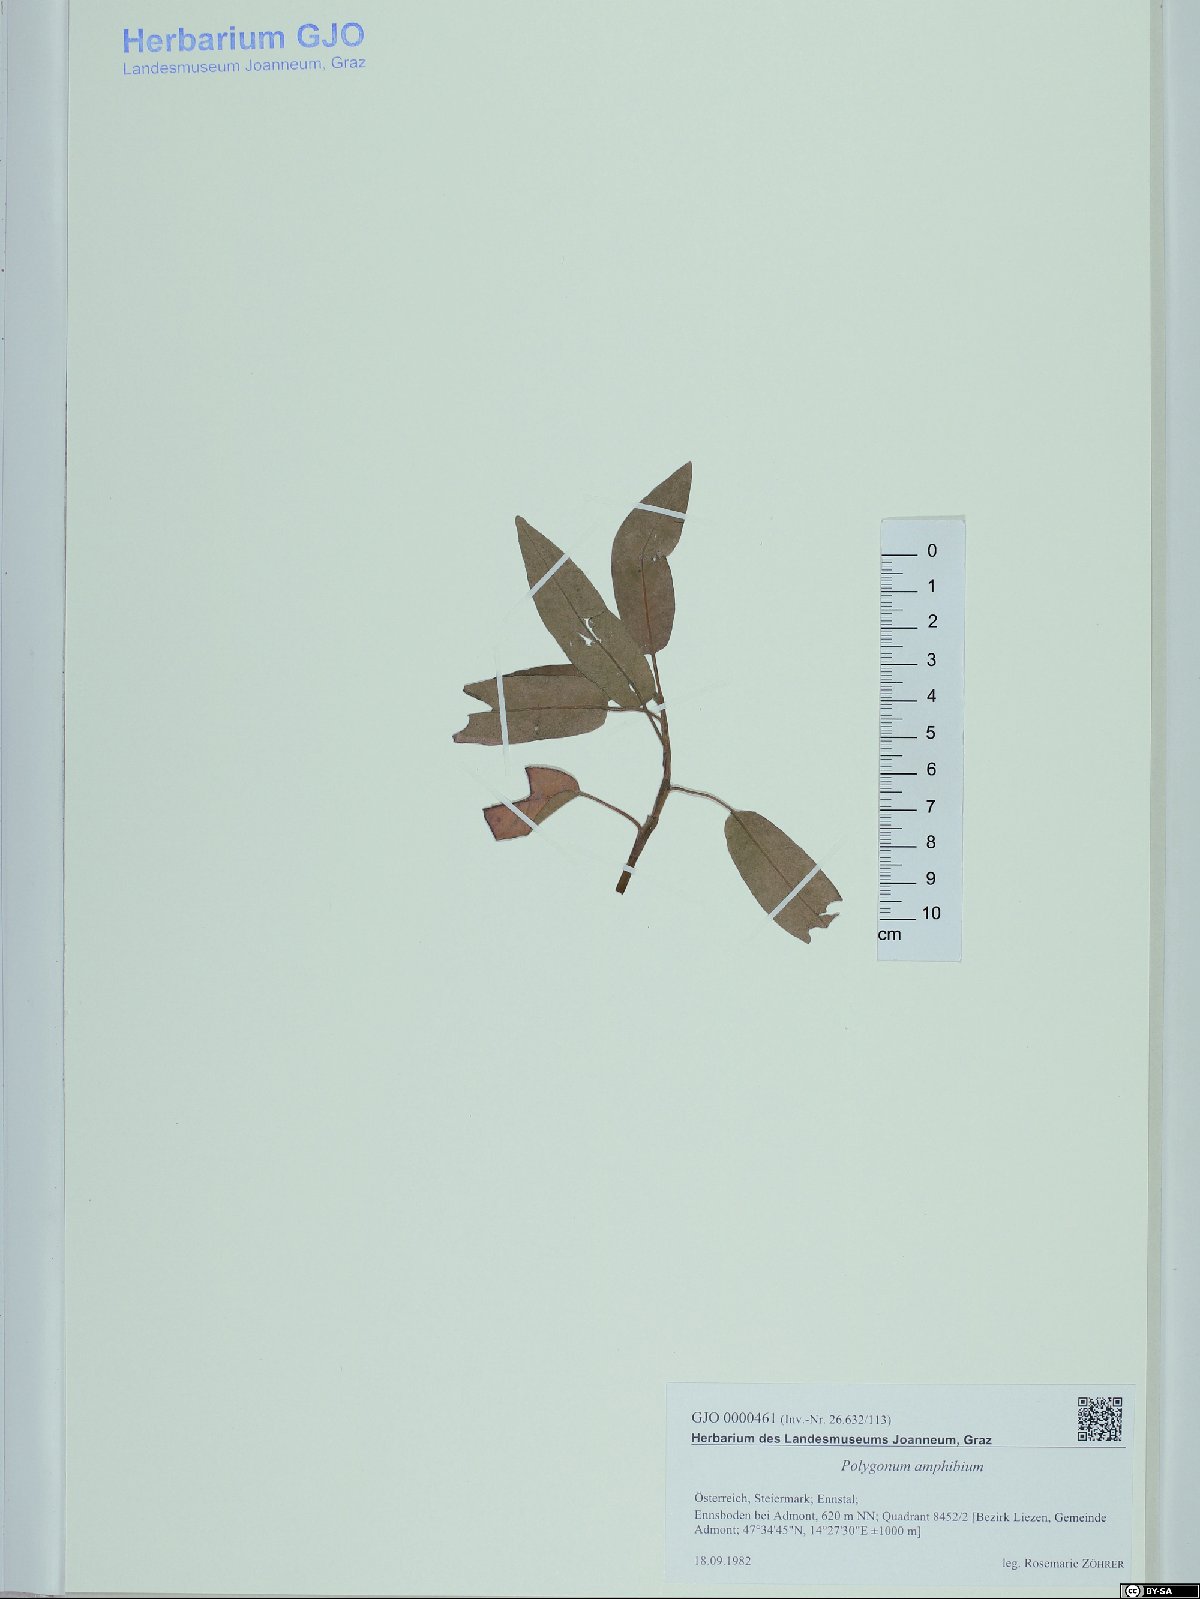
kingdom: Plantae
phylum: Tracheophyta
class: Magnoliopsida
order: Caryophyllales
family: Polygonaceae
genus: Persicaria
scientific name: Persicaria amphibia
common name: Amphibious bistort
